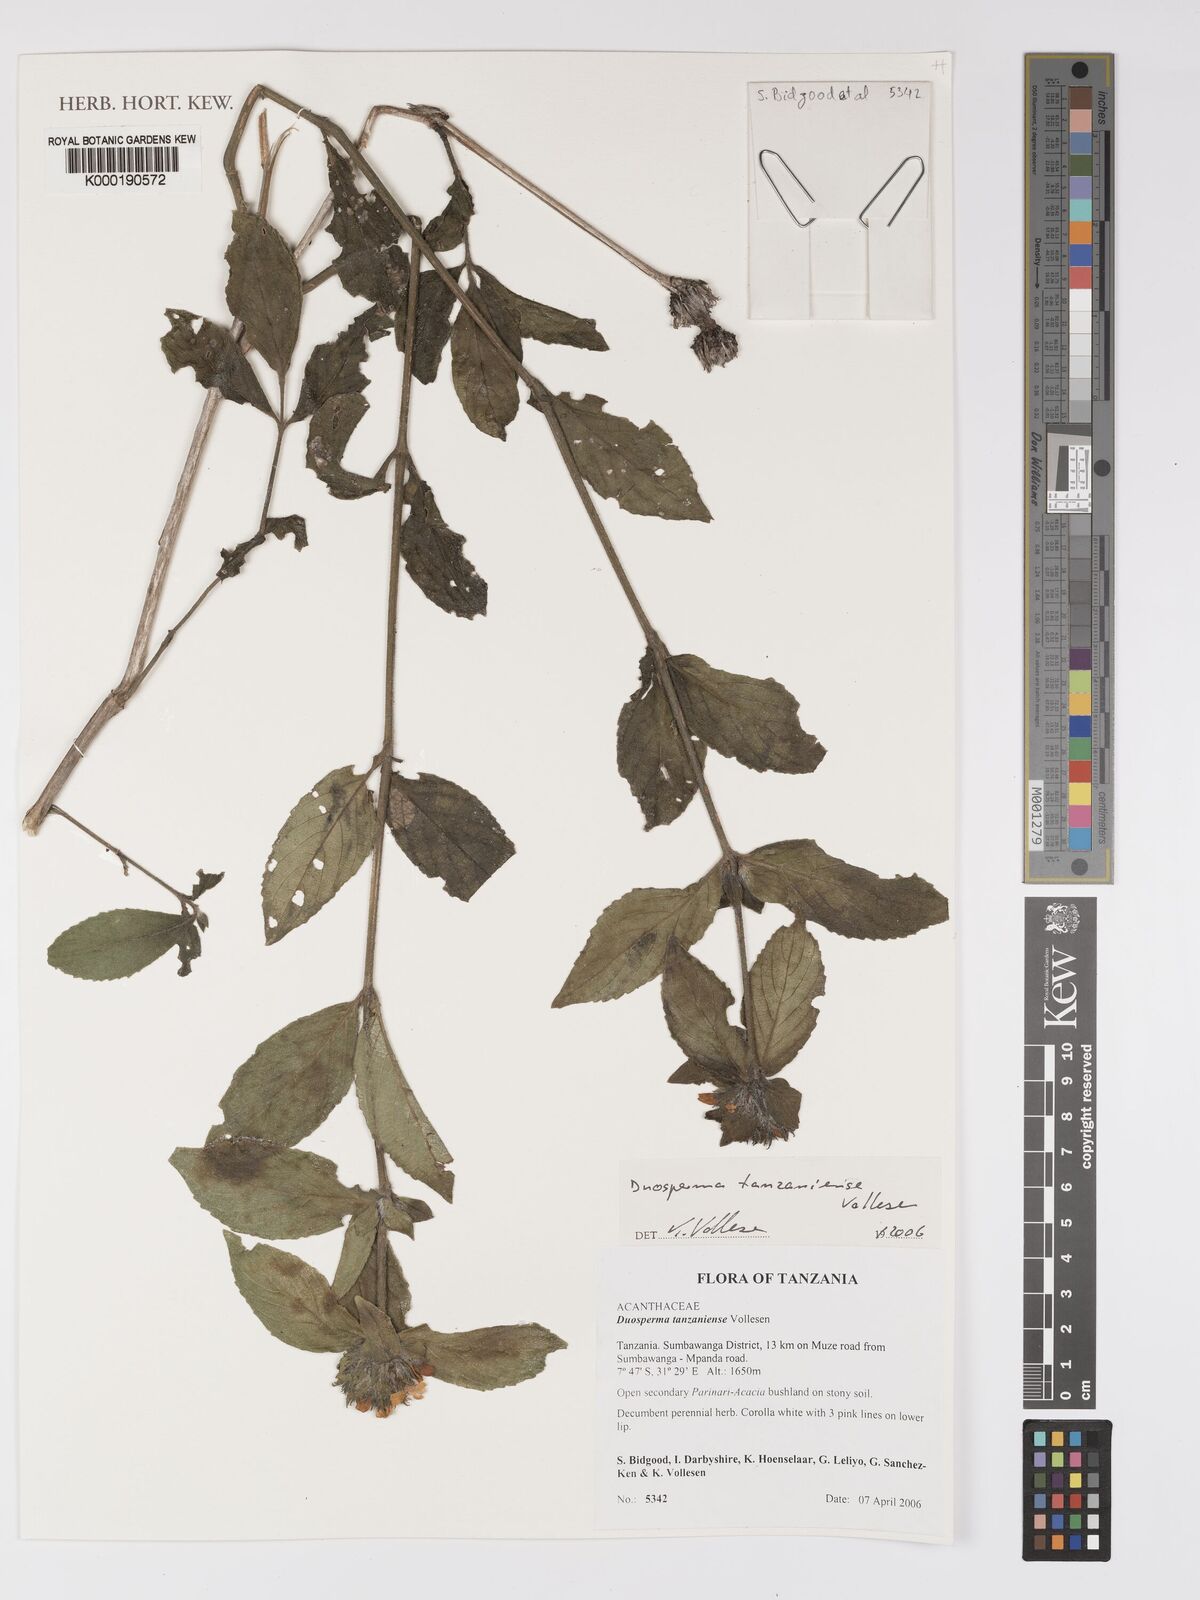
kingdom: Plantae
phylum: Tracheophyta
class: Magnoliopsida
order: Lamiales
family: Acanthaceae
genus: Duosperma
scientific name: Duosperma tanzaniense
